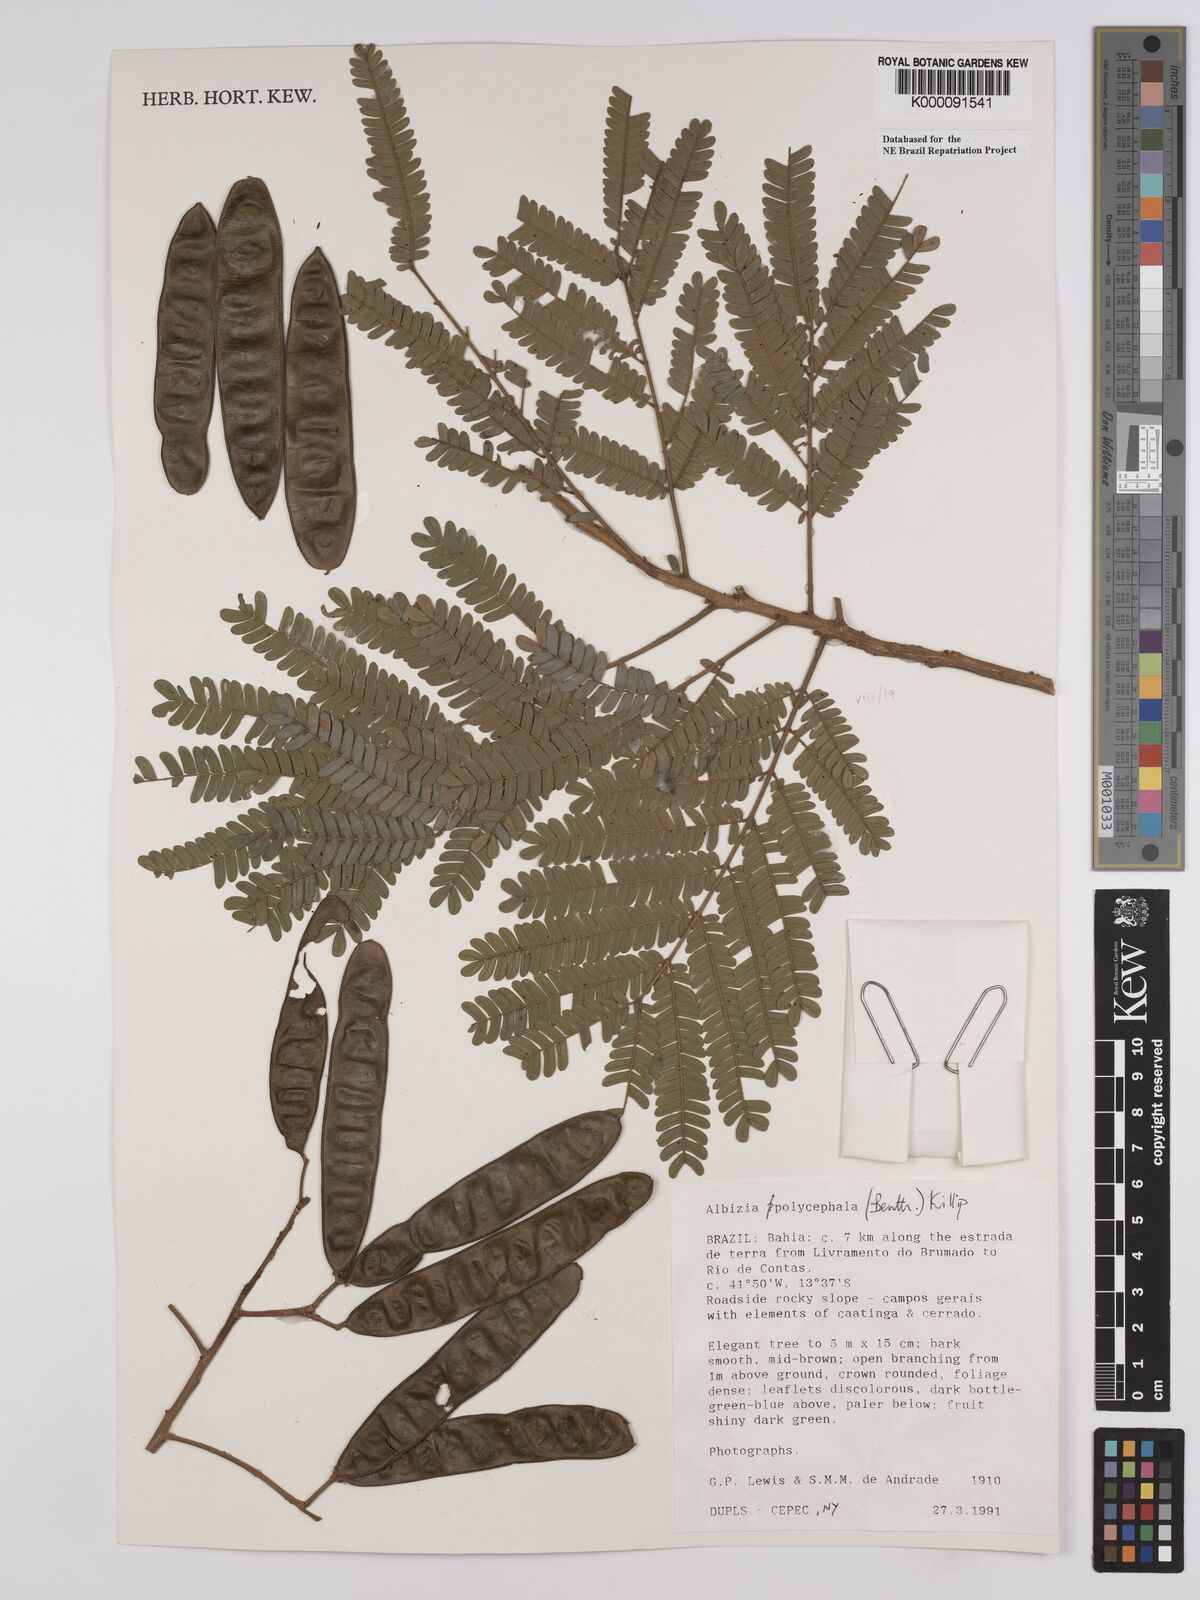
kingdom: Plantae
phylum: Tracheophyta
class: Magnoliopsida
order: Fabales
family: Fabaceae
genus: Albizia
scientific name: Albizia polycephala
